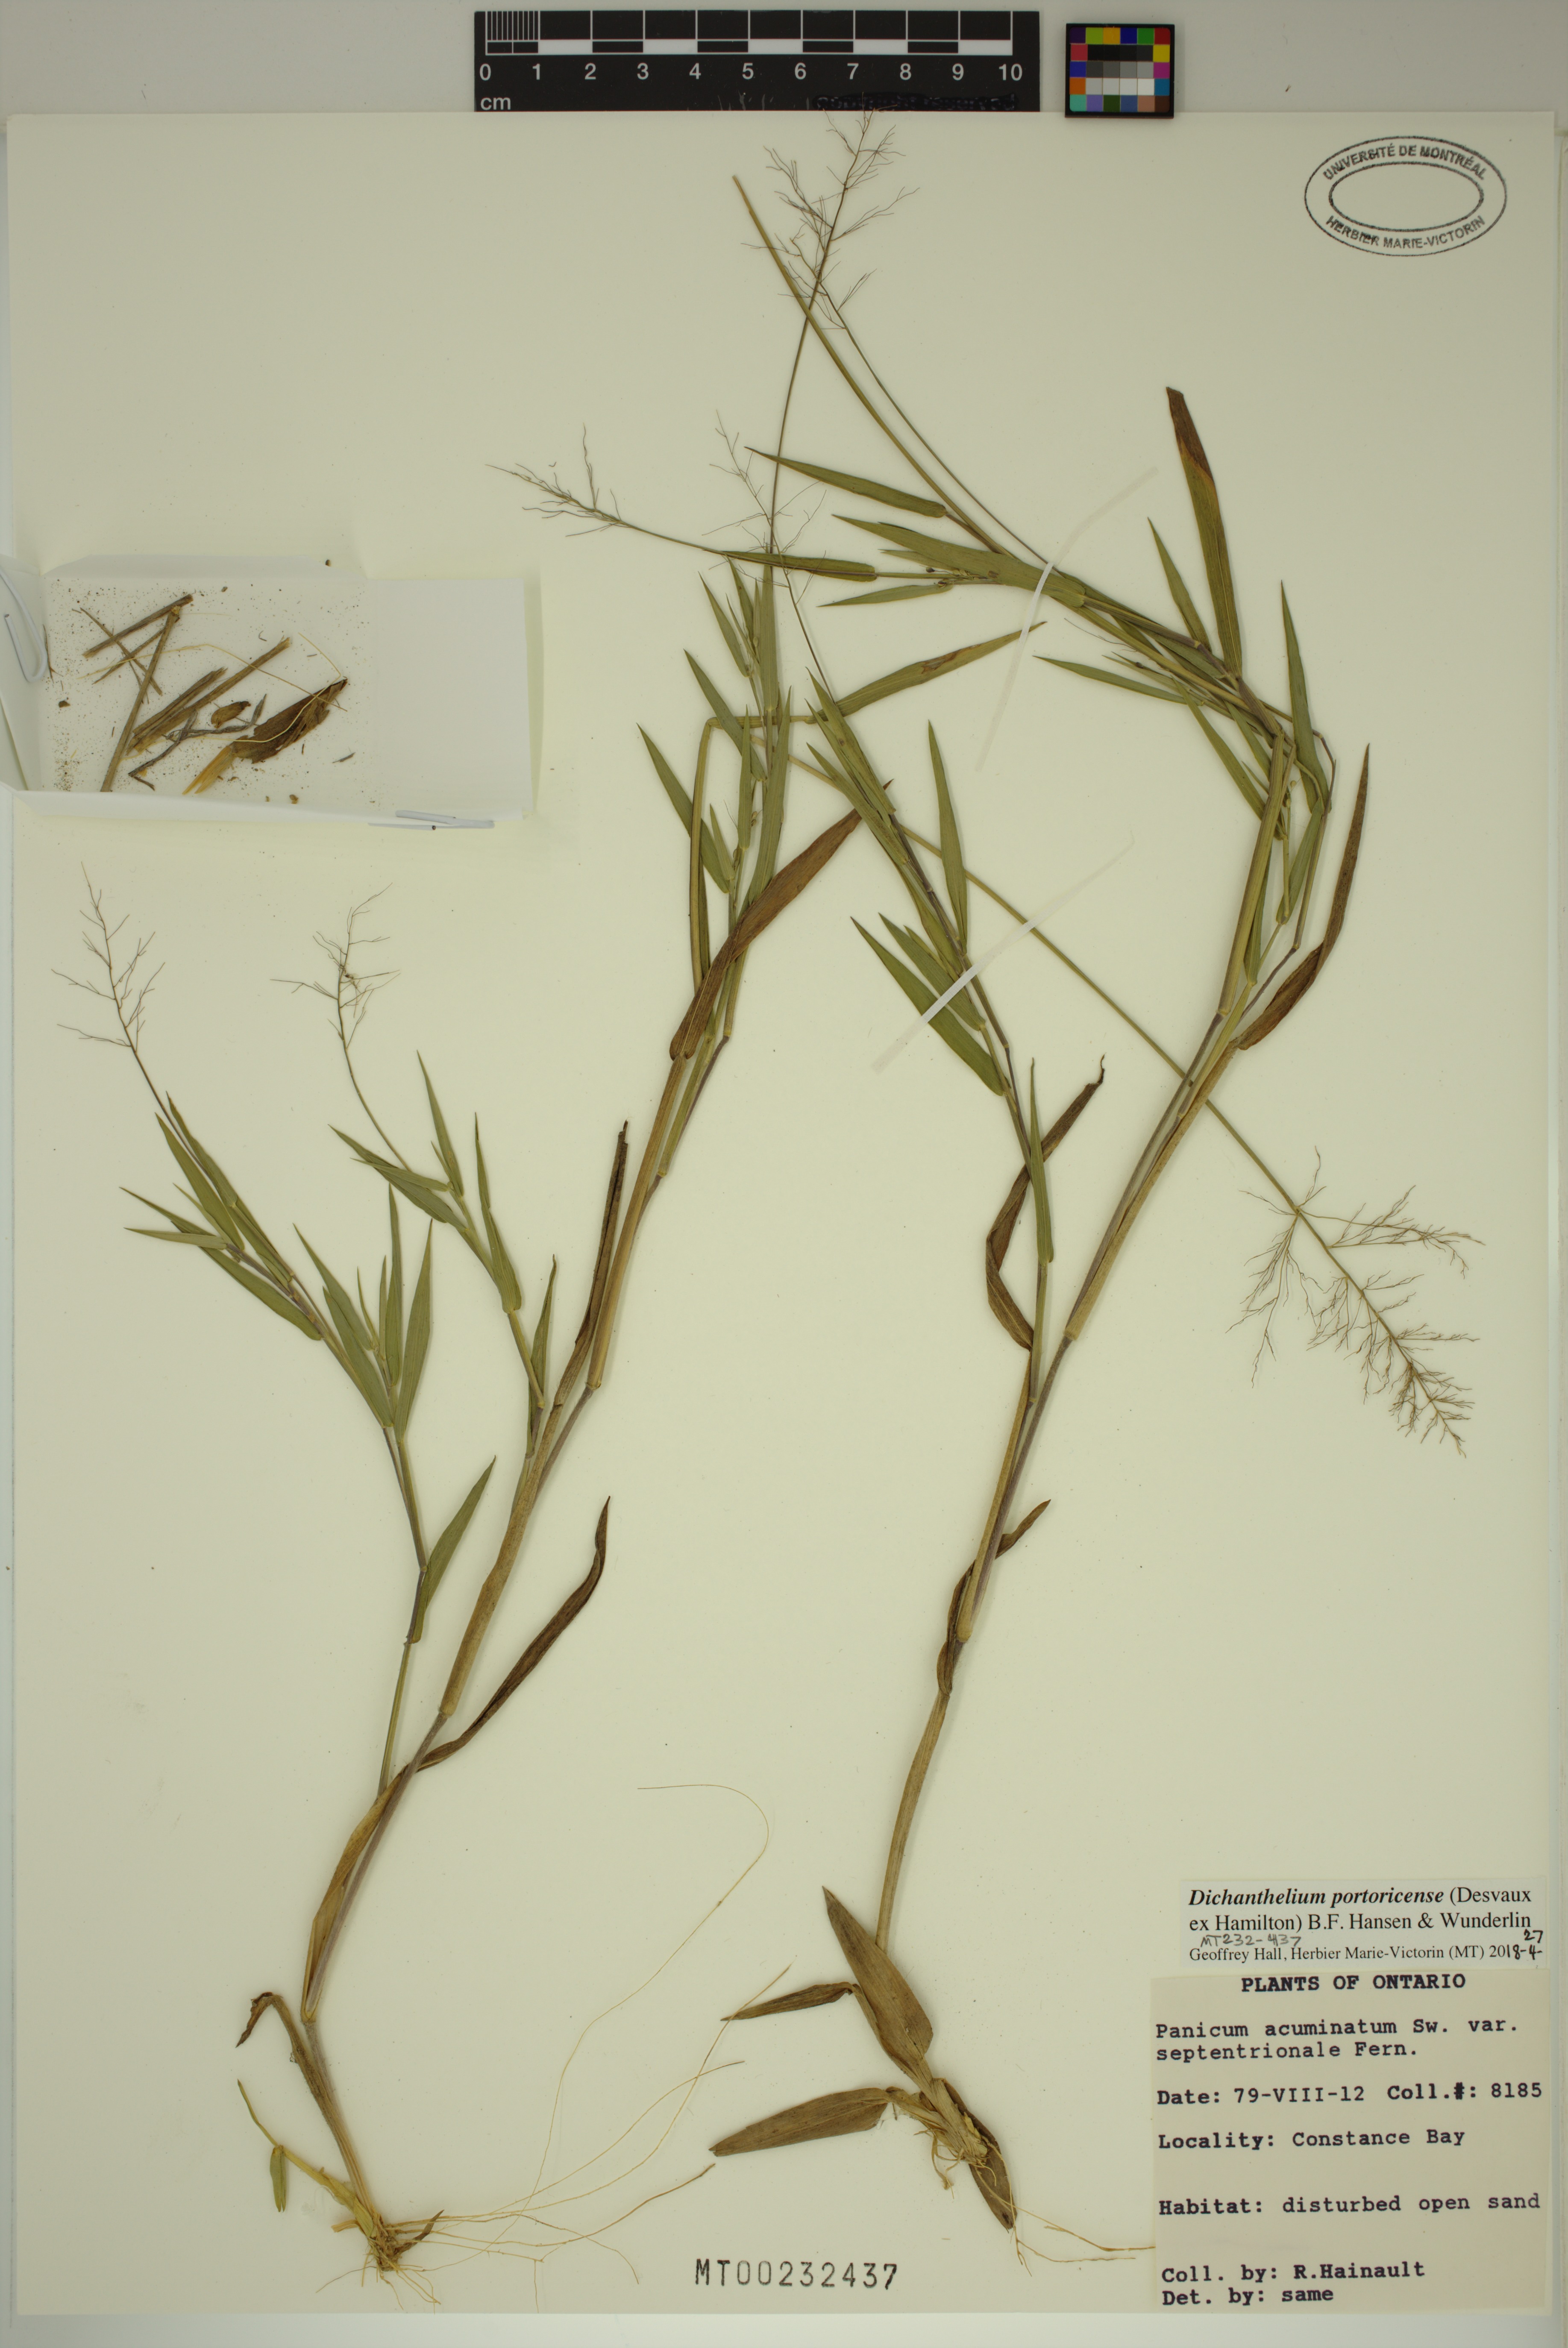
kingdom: Plantae
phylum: Tracheophyta
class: Liliopsida
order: Poales
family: Poaceae
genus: Dichanthelium
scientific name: Dichanthelium portoricense
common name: American panicgrass
